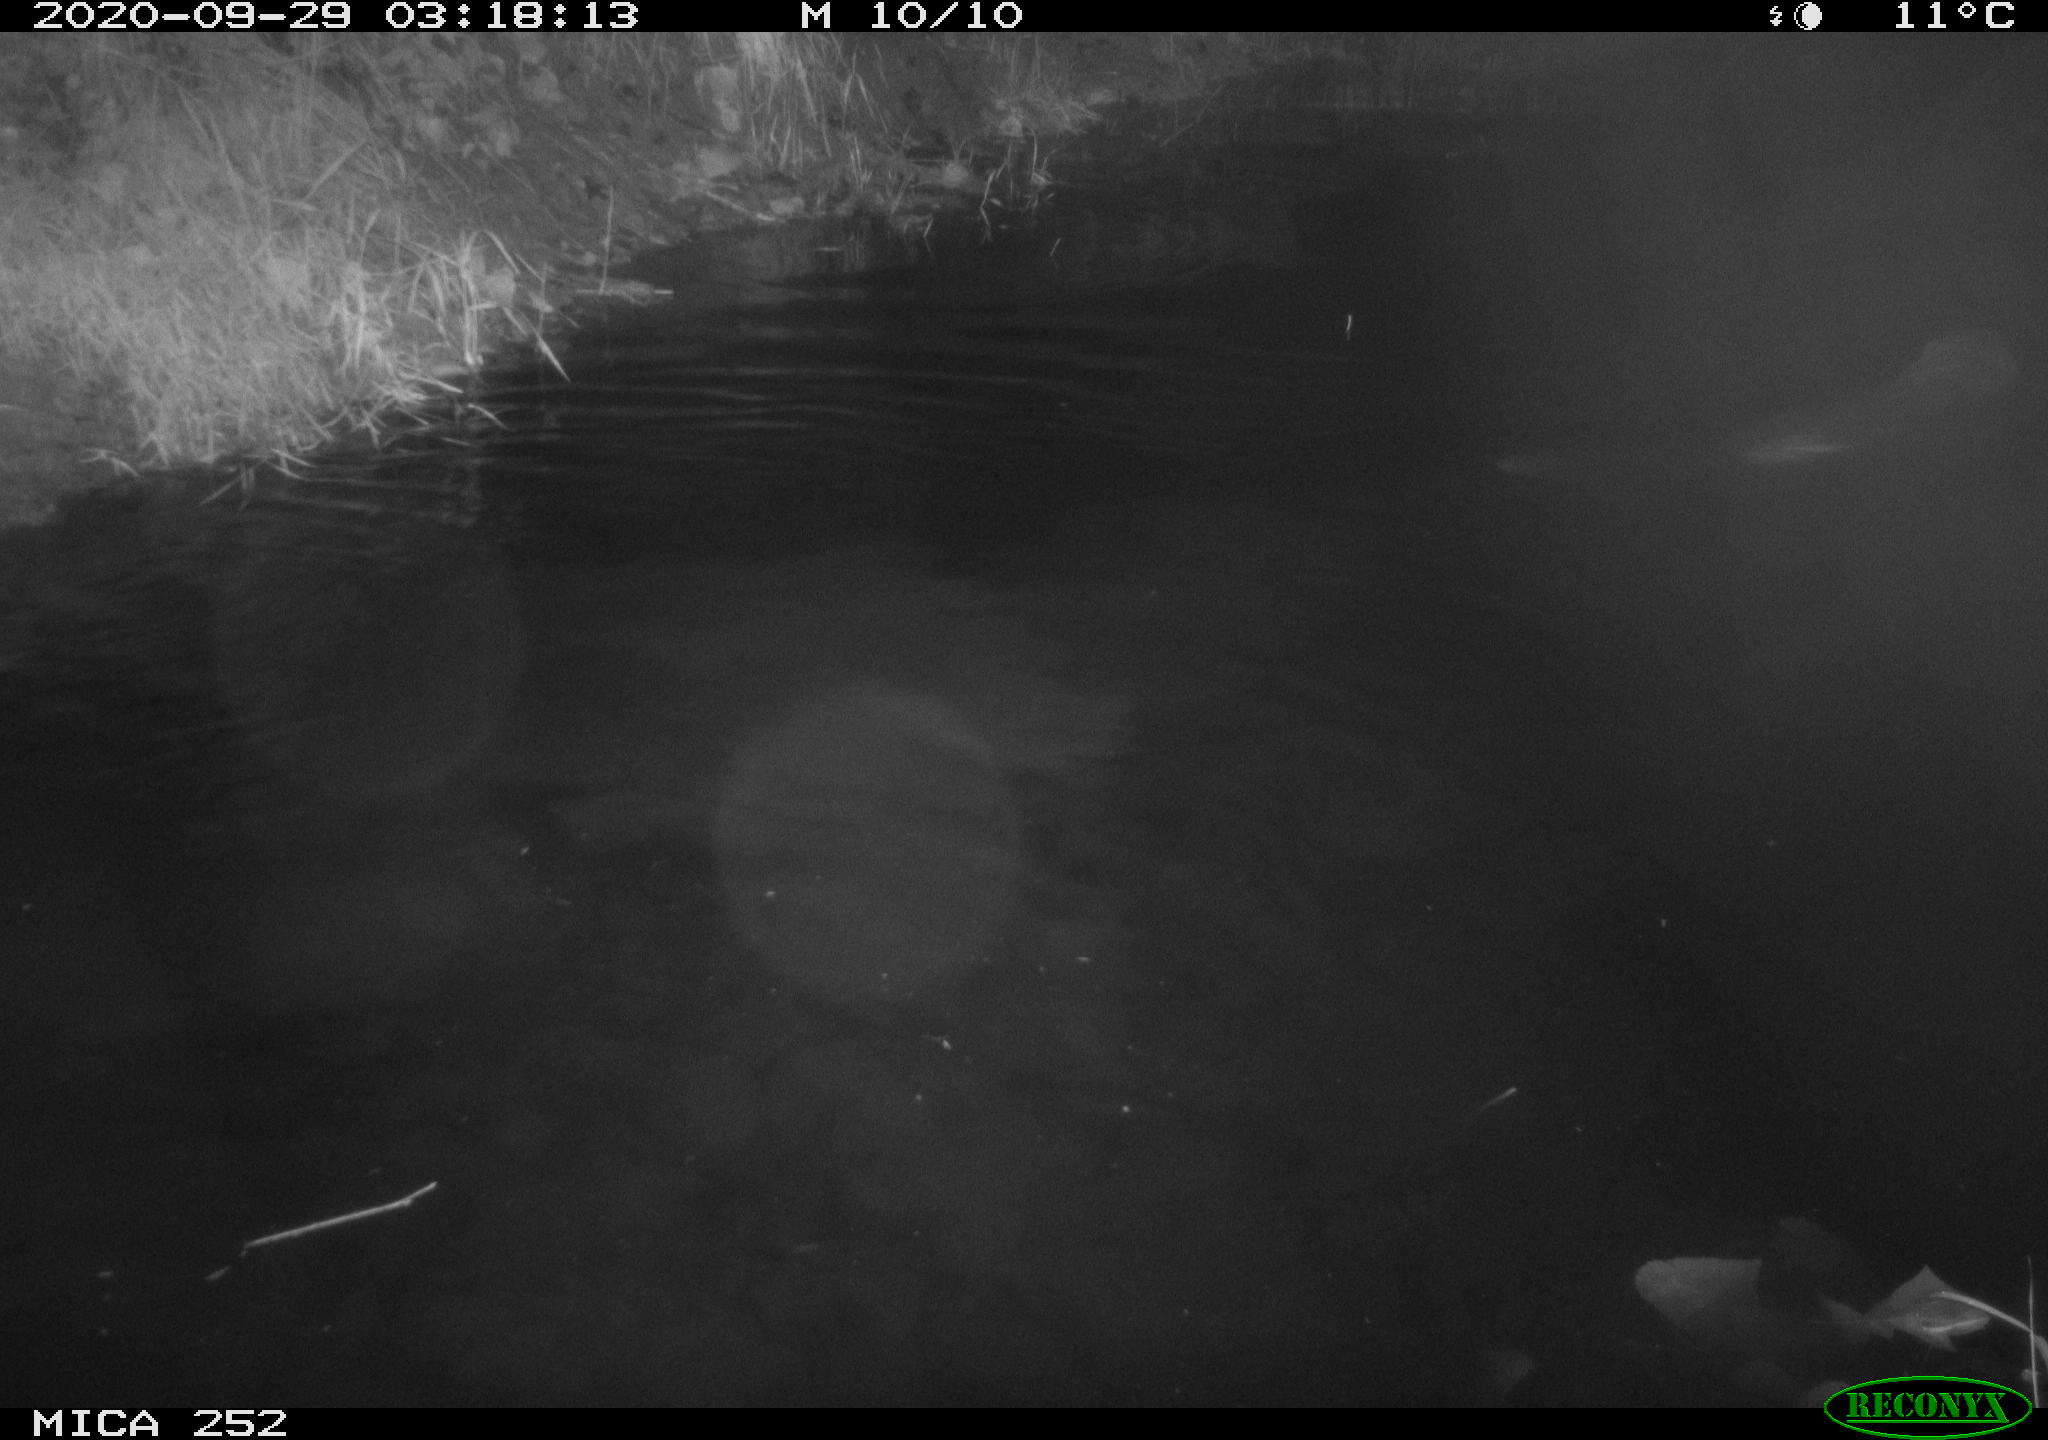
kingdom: Animalia
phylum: Chordata
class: Mammalia
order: Rodentia
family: Castoridae
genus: Castor
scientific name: Castor fiber
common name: Eurasian beaver
